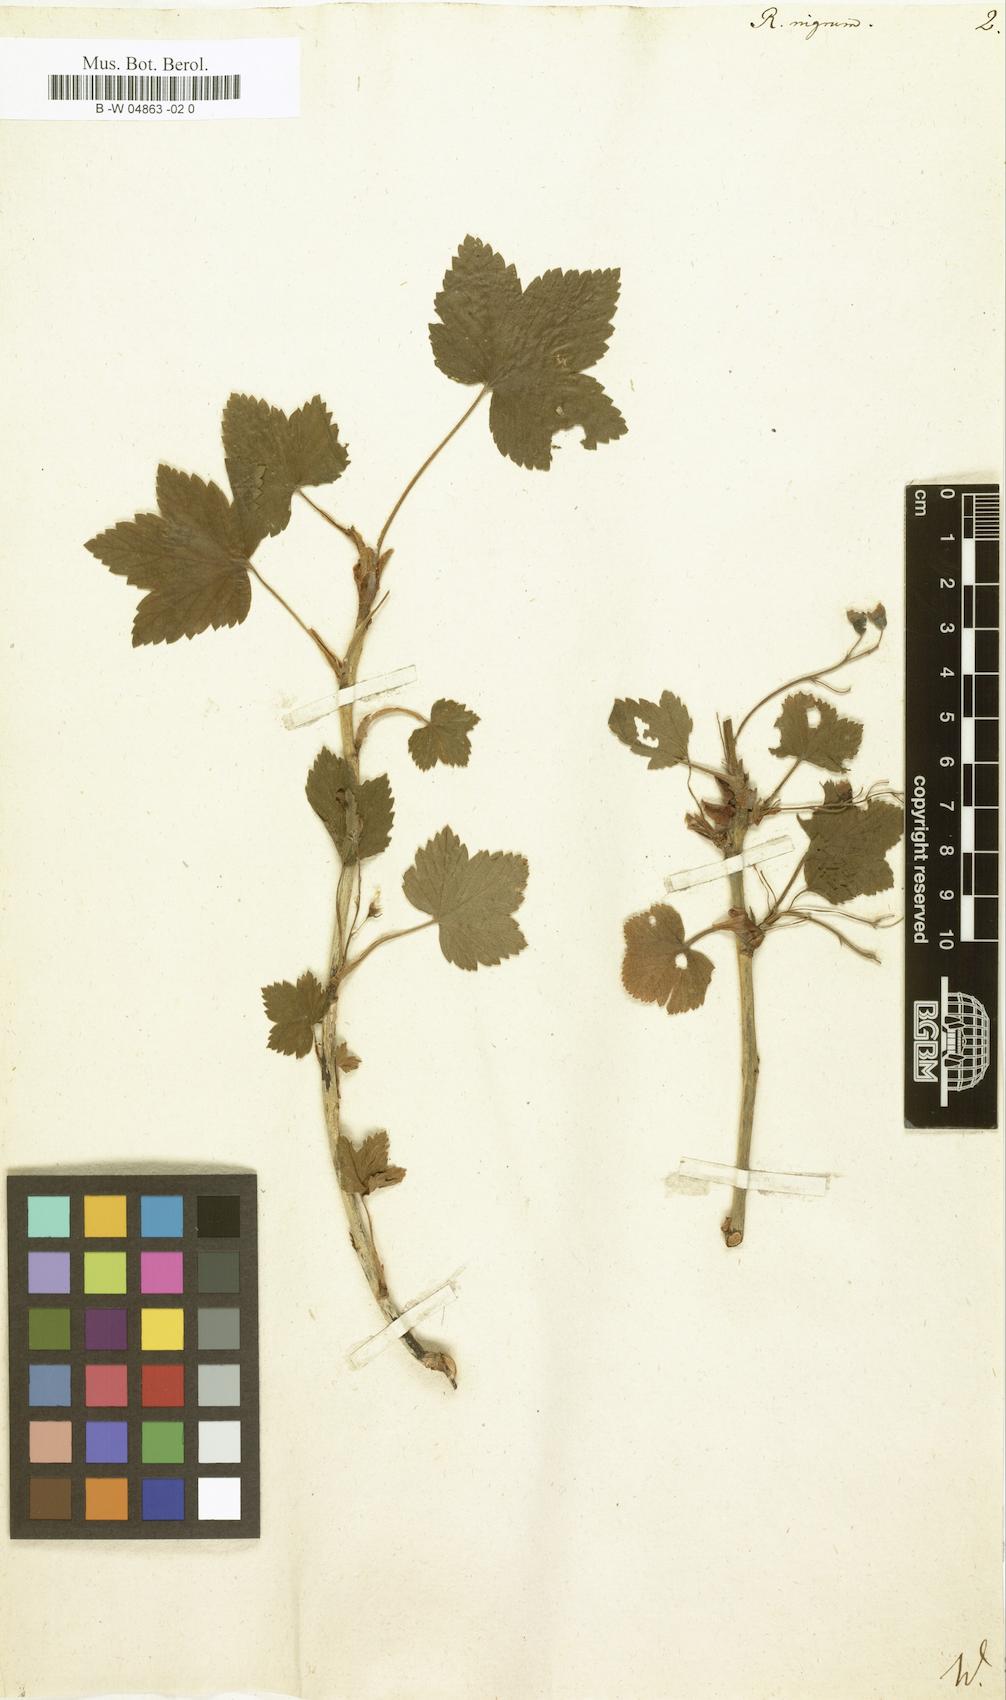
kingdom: Plantae
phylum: Tracheophyta
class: Magnoliopsida
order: Saxifragales
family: Grossulariaceae
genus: Ribes
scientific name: Ribes nigrum
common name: Black currant
